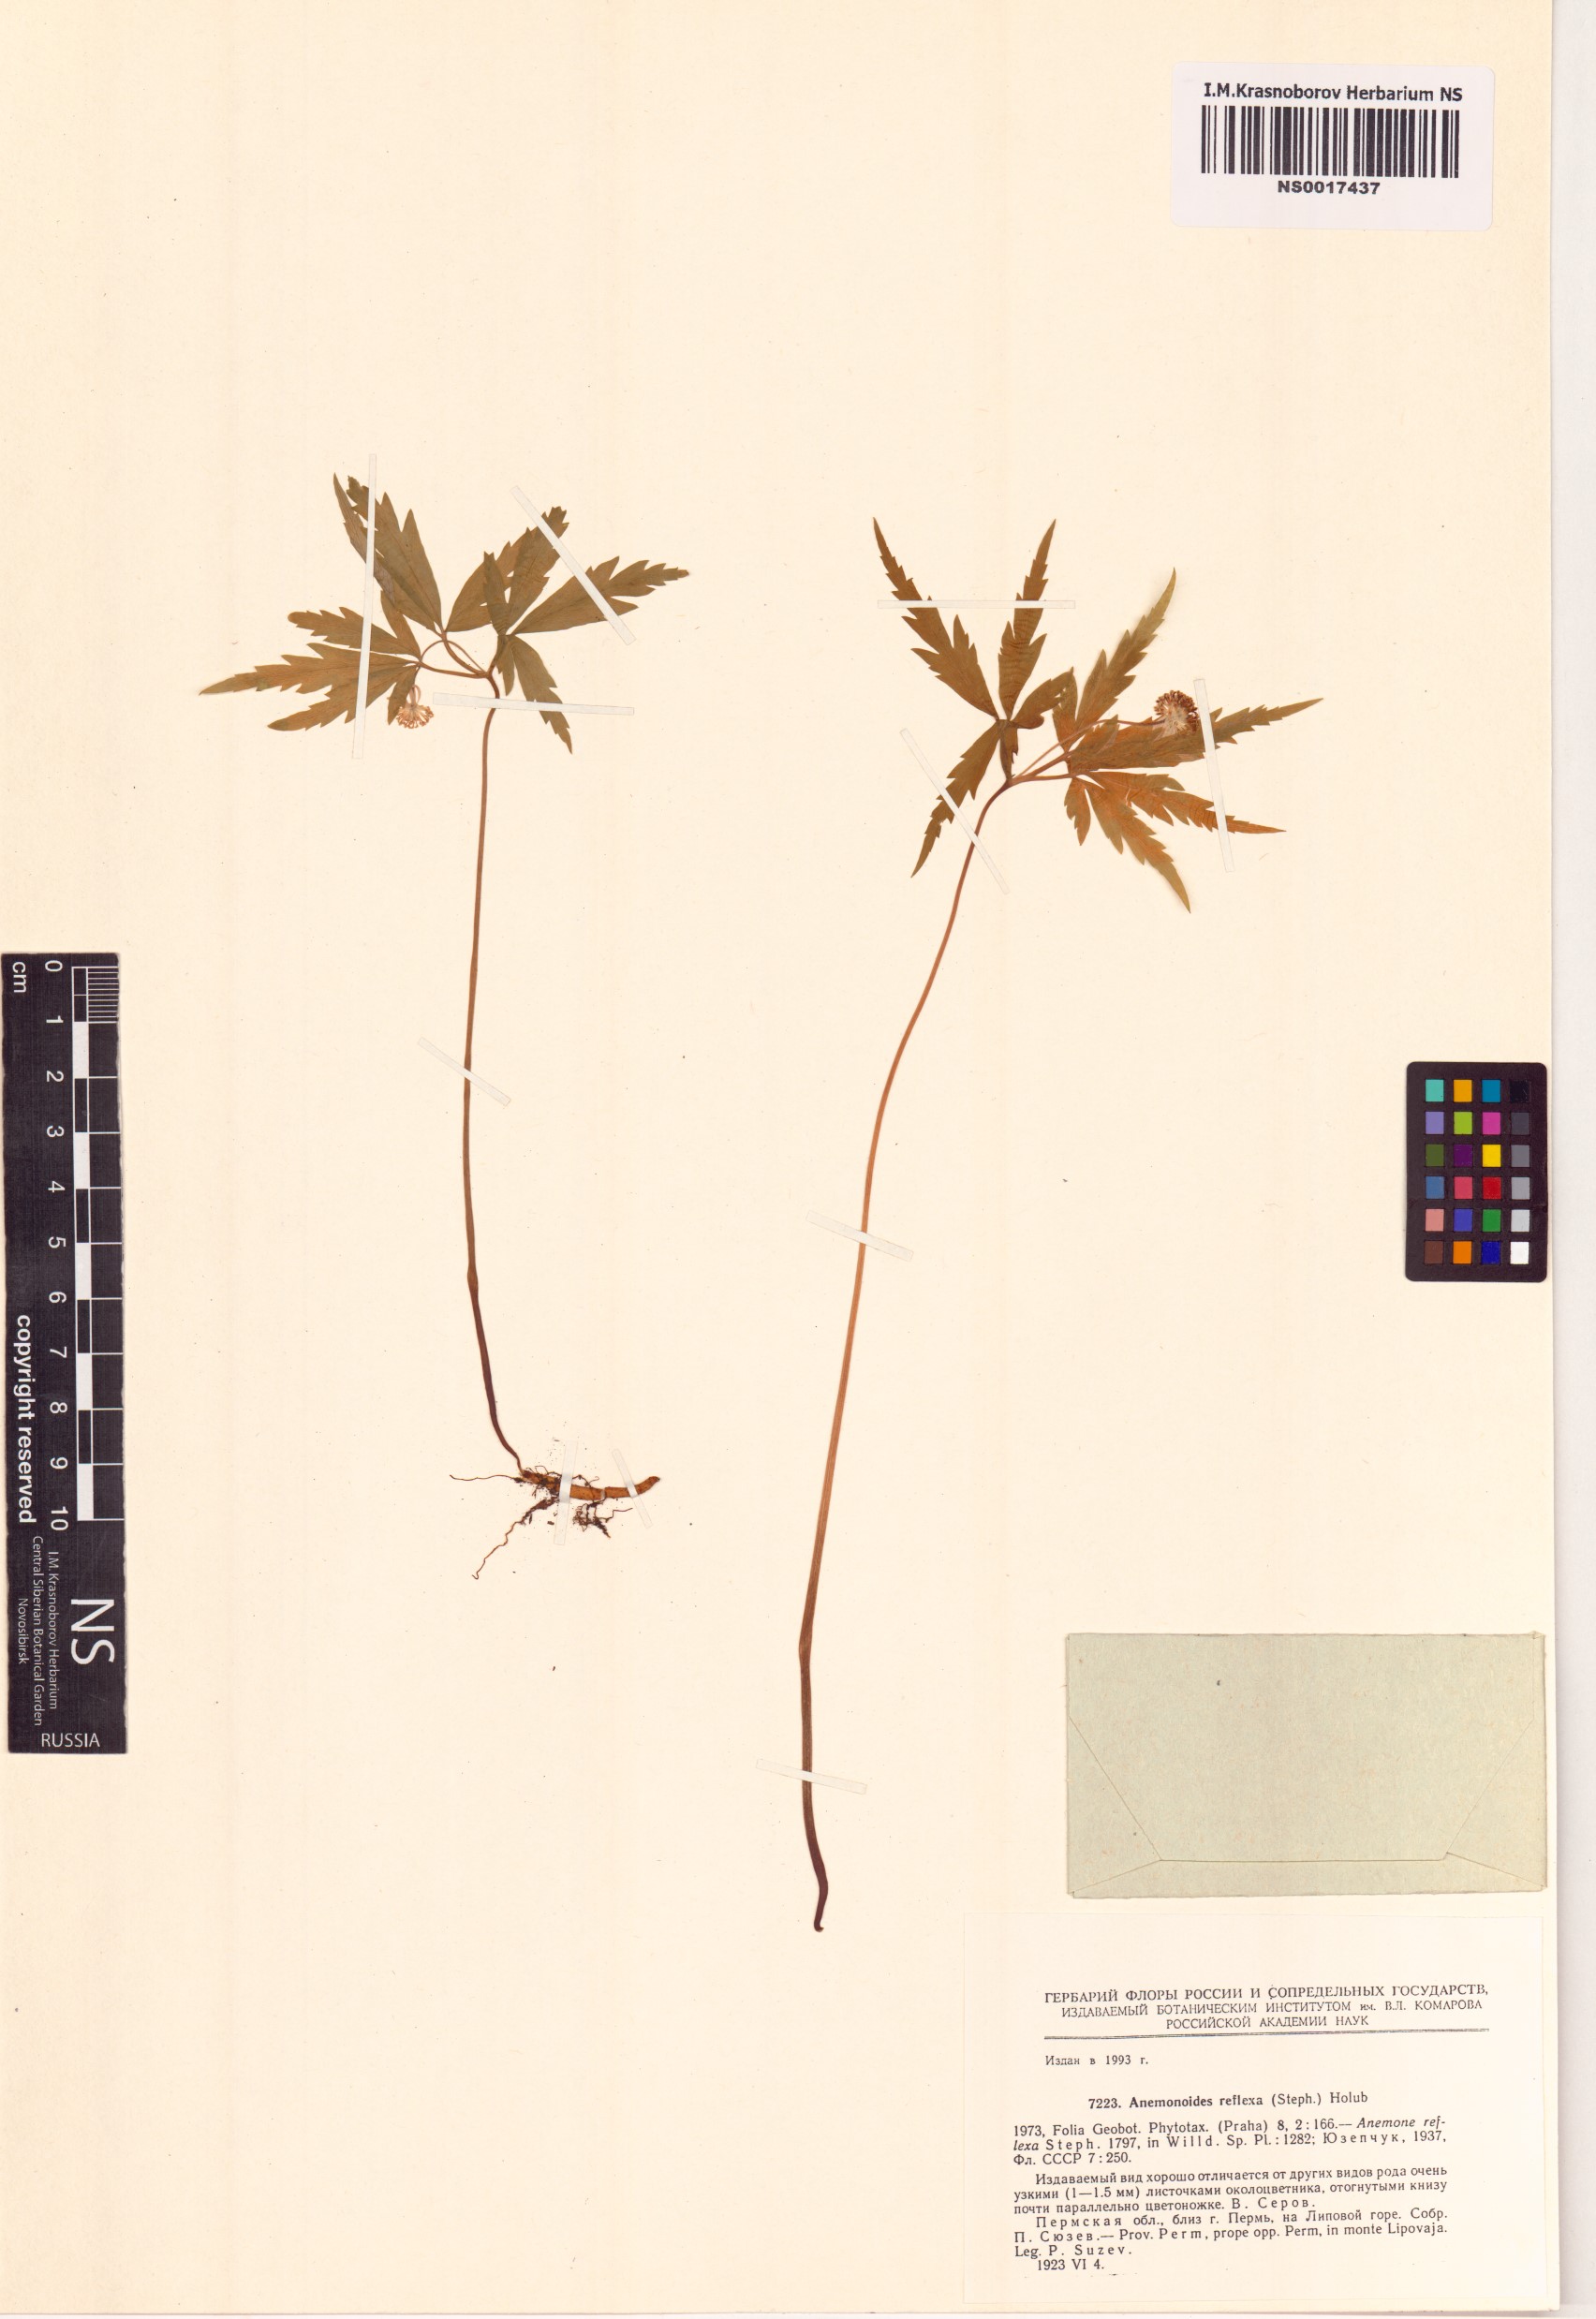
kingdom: Plantae
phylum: Tracheophyta
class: Magnoliopsida
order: Ranunculales
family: Ranunculaceae
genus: Anemone
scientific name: Anemone reflexa
